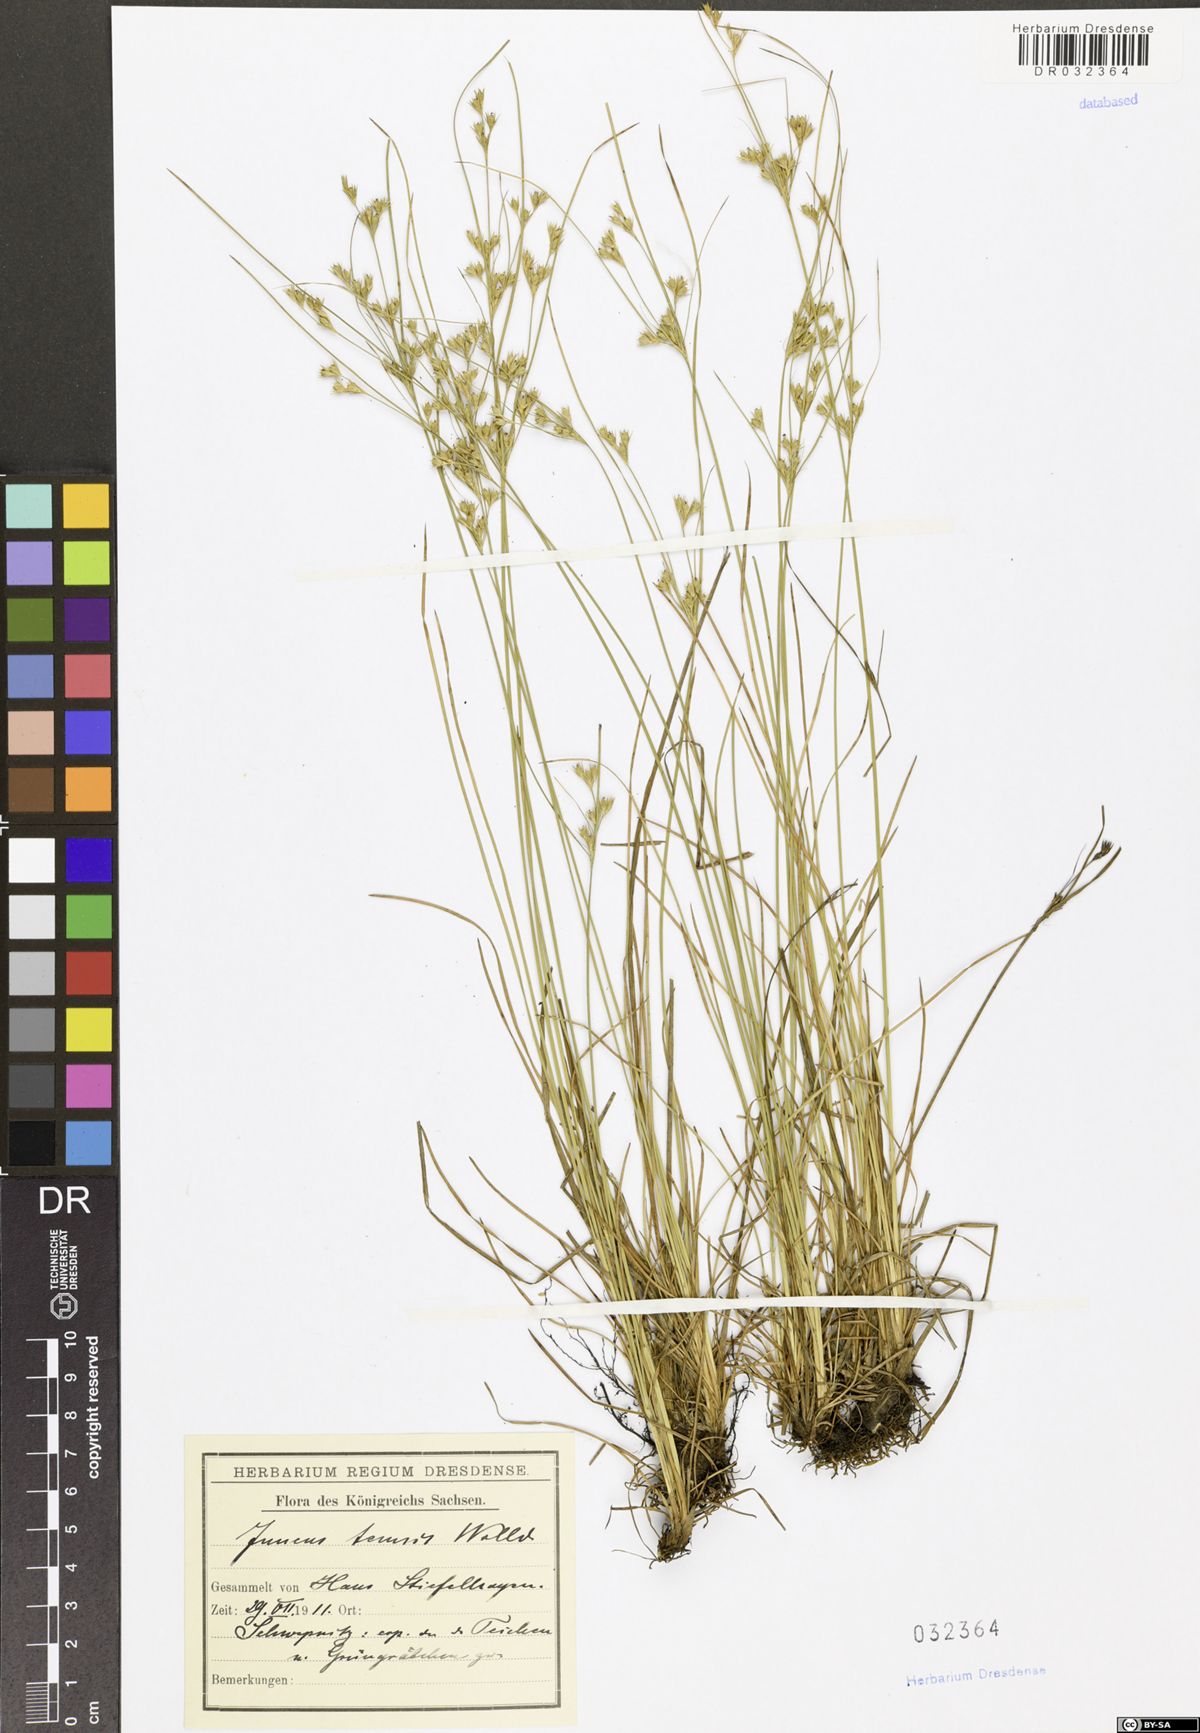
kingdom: Plantae
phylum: Tracheophyta
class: Liliopsida
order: Poales
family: Juncaceae
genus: Juncus
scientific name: Juncus tenuis
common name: Slender rush
